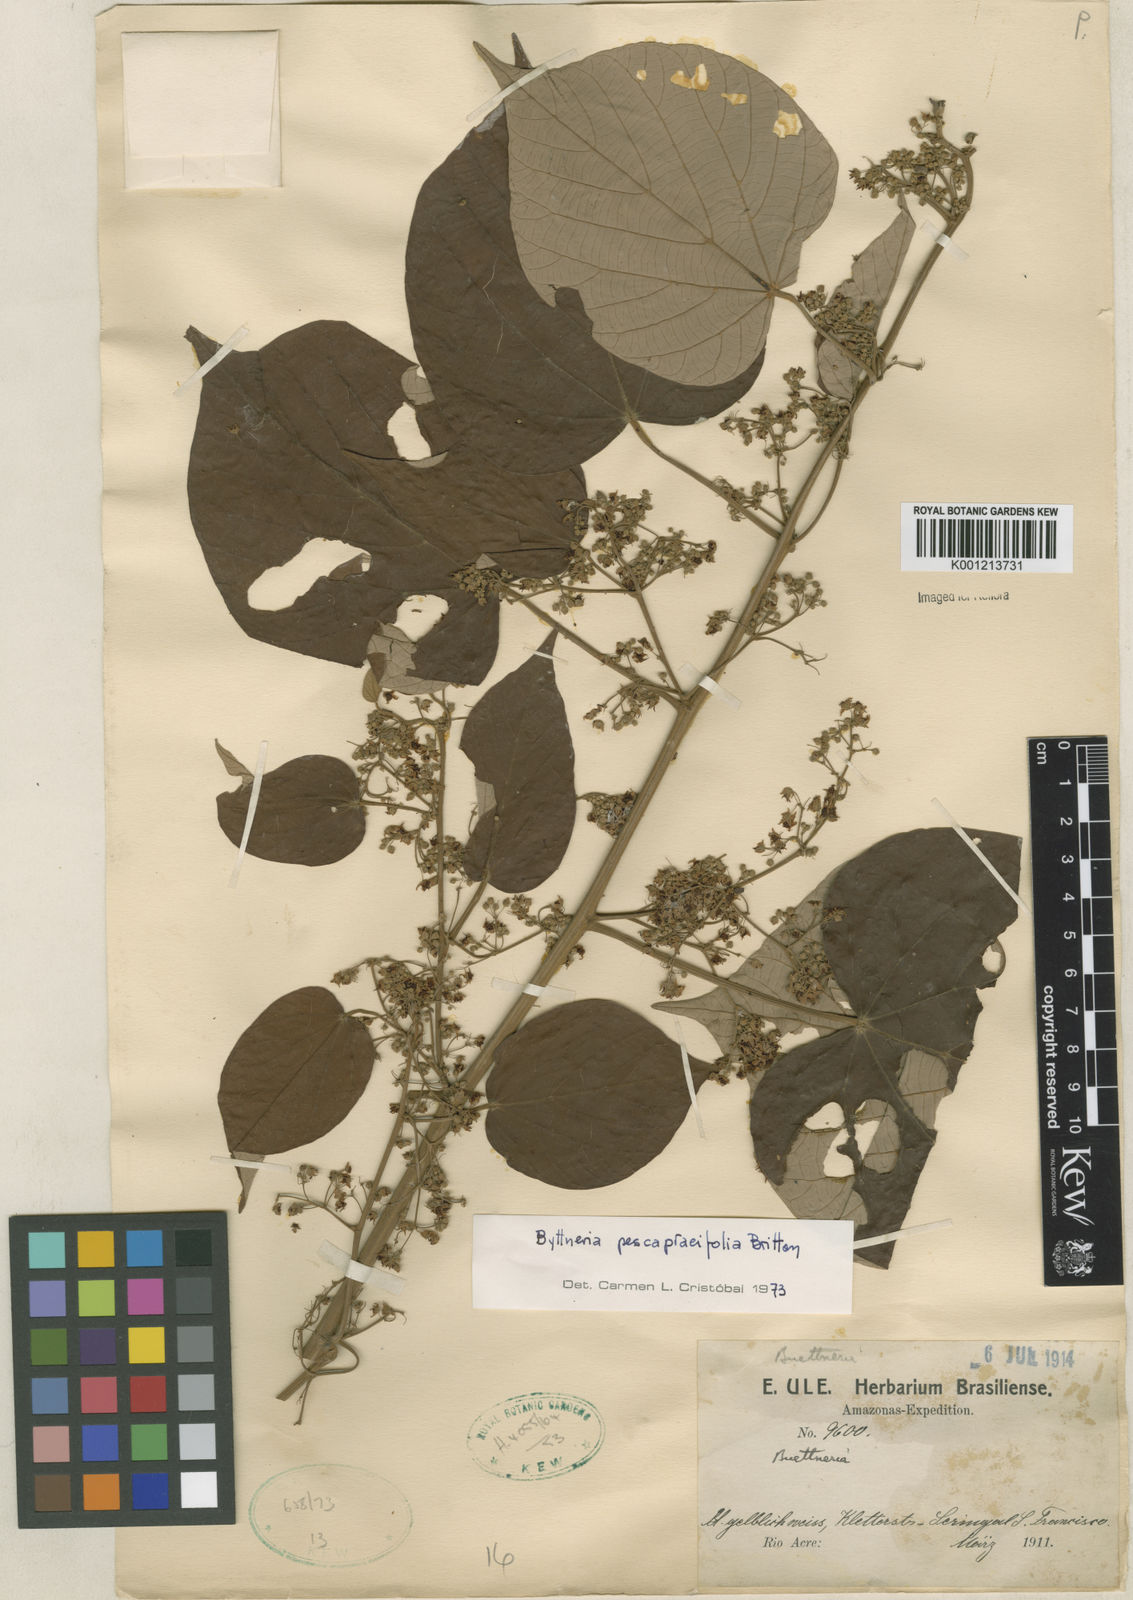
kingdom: Plantae
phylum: Tracheophyta
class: Magnoliopsida
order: Malvales
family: Malvaceae
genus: Byttneria
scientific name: Byttneria pescapraeifolia
